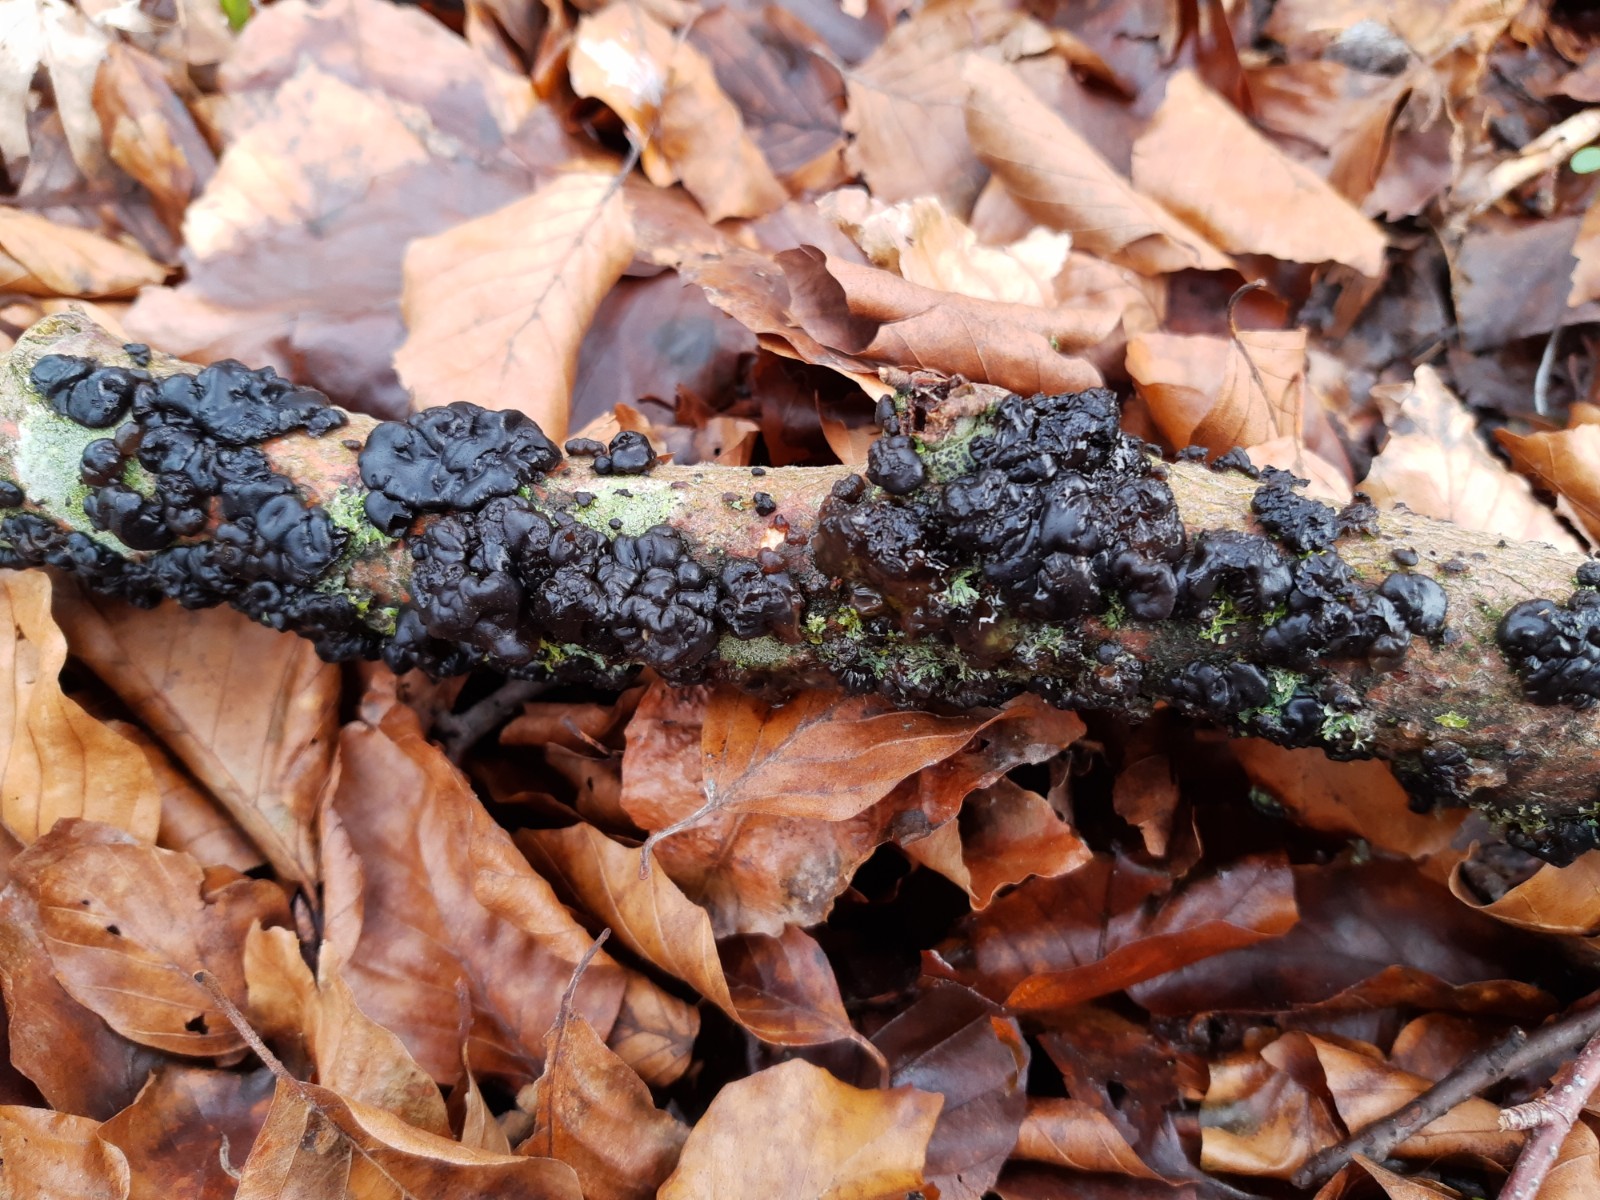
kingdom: Fungi
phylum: Basidiomycota
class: Agaricomycetes
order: Auriculariales
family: Auriculariaceae
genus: Exidia
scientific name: Exidia nigricans
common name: almindelig bævretop
